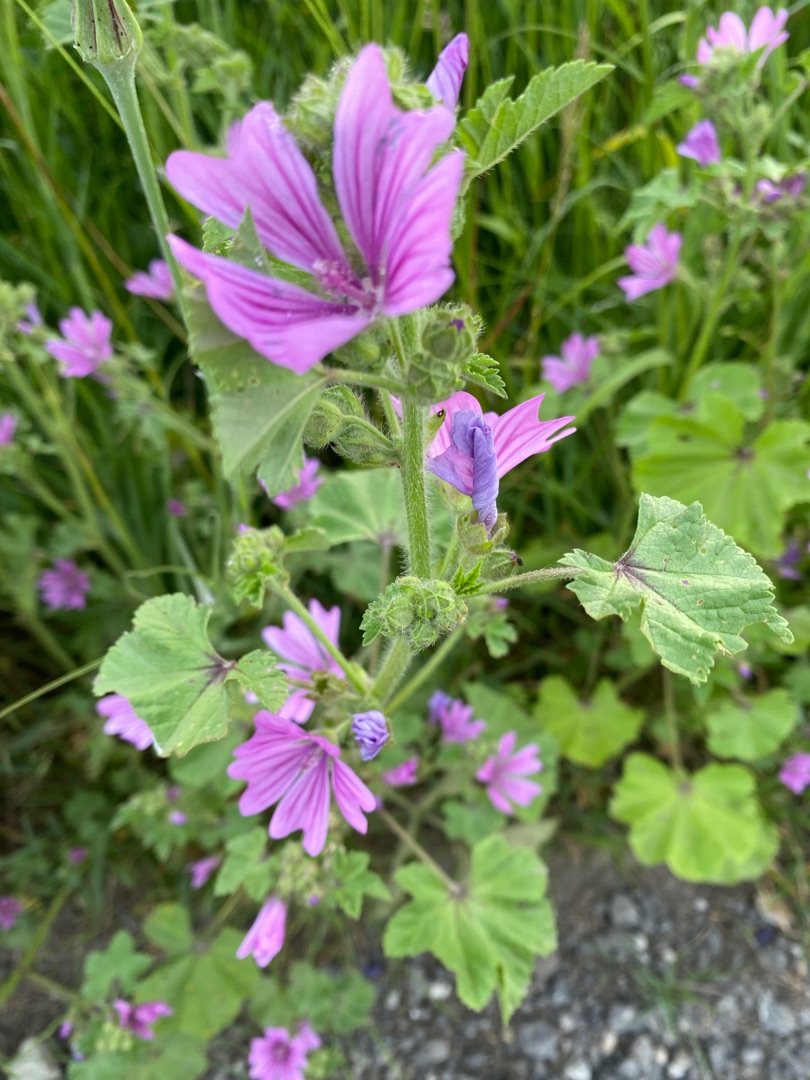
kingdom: Plantae
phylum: Tracheophyta
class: Magnoliopsida
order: Malvales
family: Malvaceae
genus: Malva
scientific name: Malva sylvestris
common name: Almindelig katost
